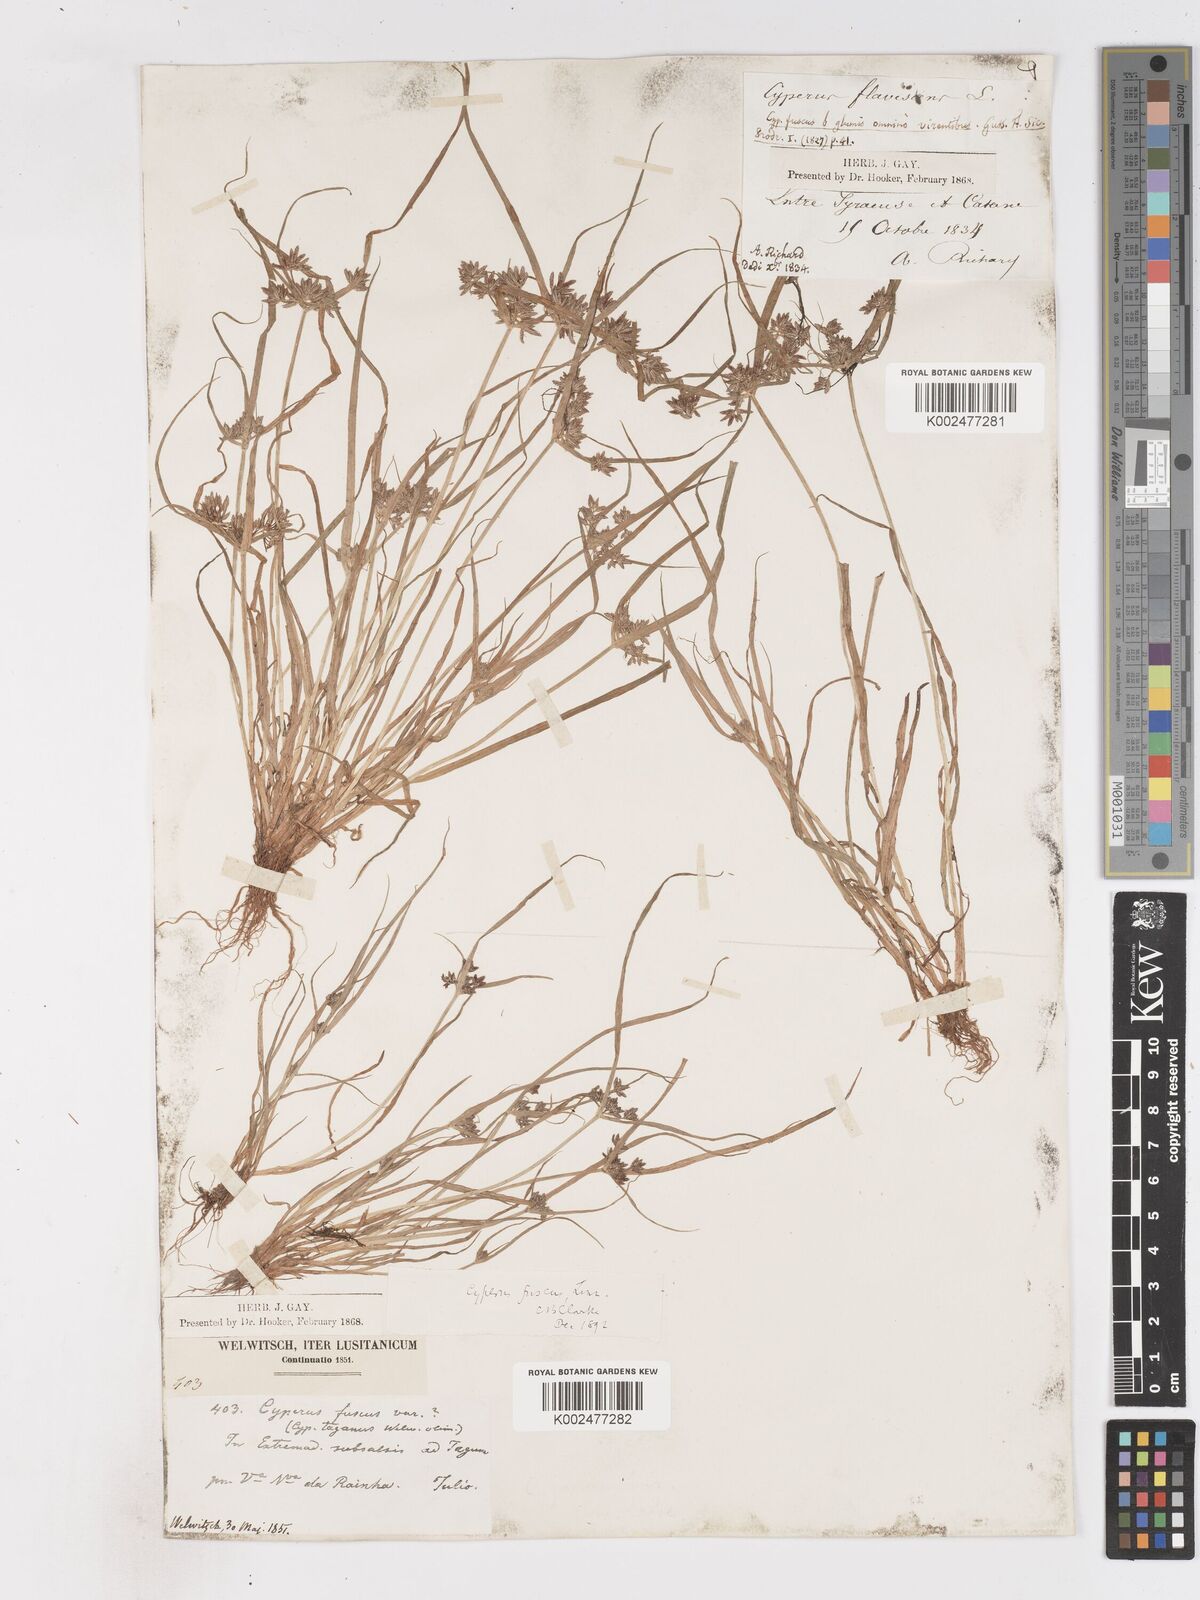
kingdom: Plantae
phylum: Tracheophyta
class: Liliopsida
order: Poales
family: Cyperaceae
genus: Cyperus
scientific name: Cyperus fuscus
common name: Brown galingale
